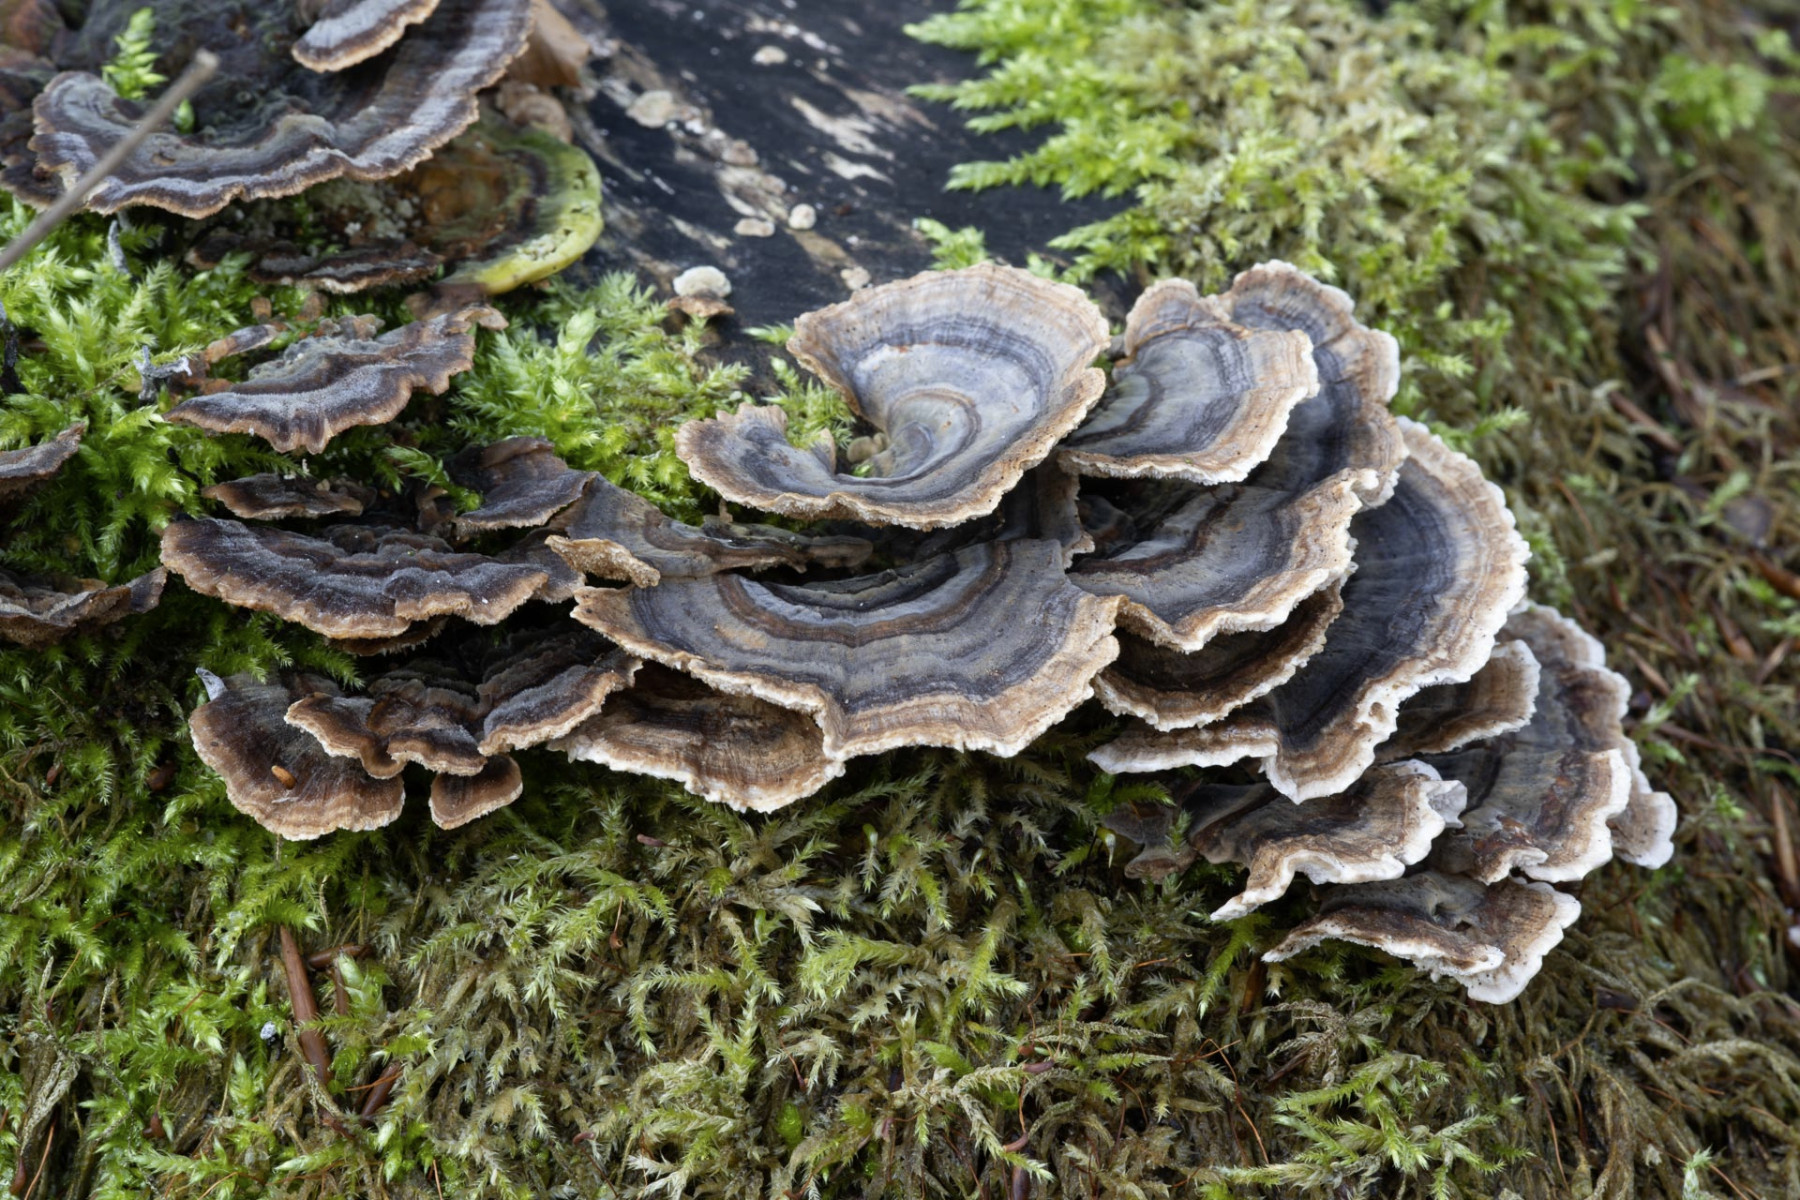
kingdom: Fungi
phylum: Basidiomycota
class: Agaricomycetes
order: Polyporales
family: Polyporaceae
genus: Trametes
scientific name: Trametes versicolor
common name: broget læderporesvamp
